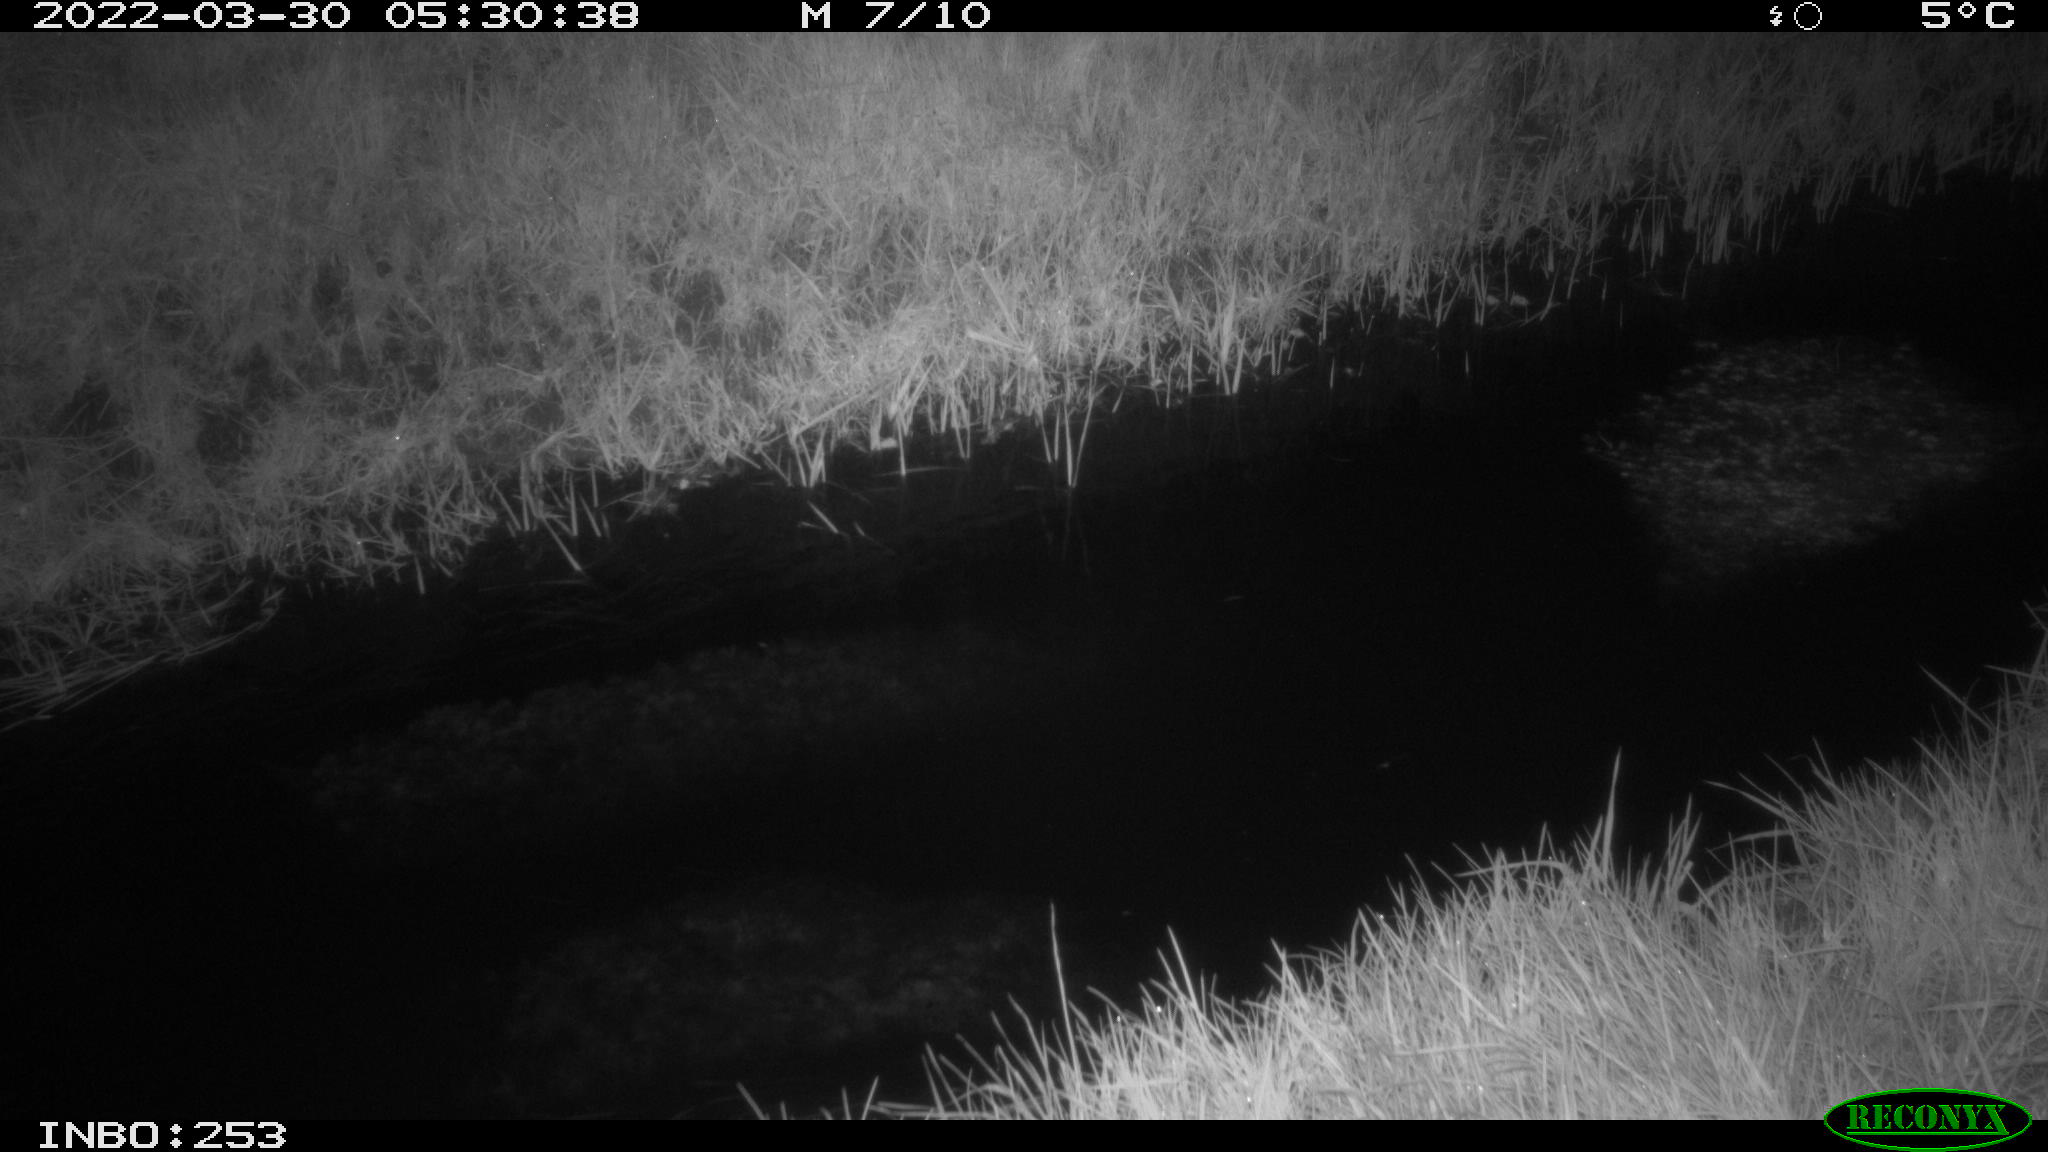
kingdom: Animalia
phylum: Chordata
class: Aves
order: Anseriformes
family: Anatidae
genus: Anas
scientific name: Anas platyrhynchos
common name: Mallard
